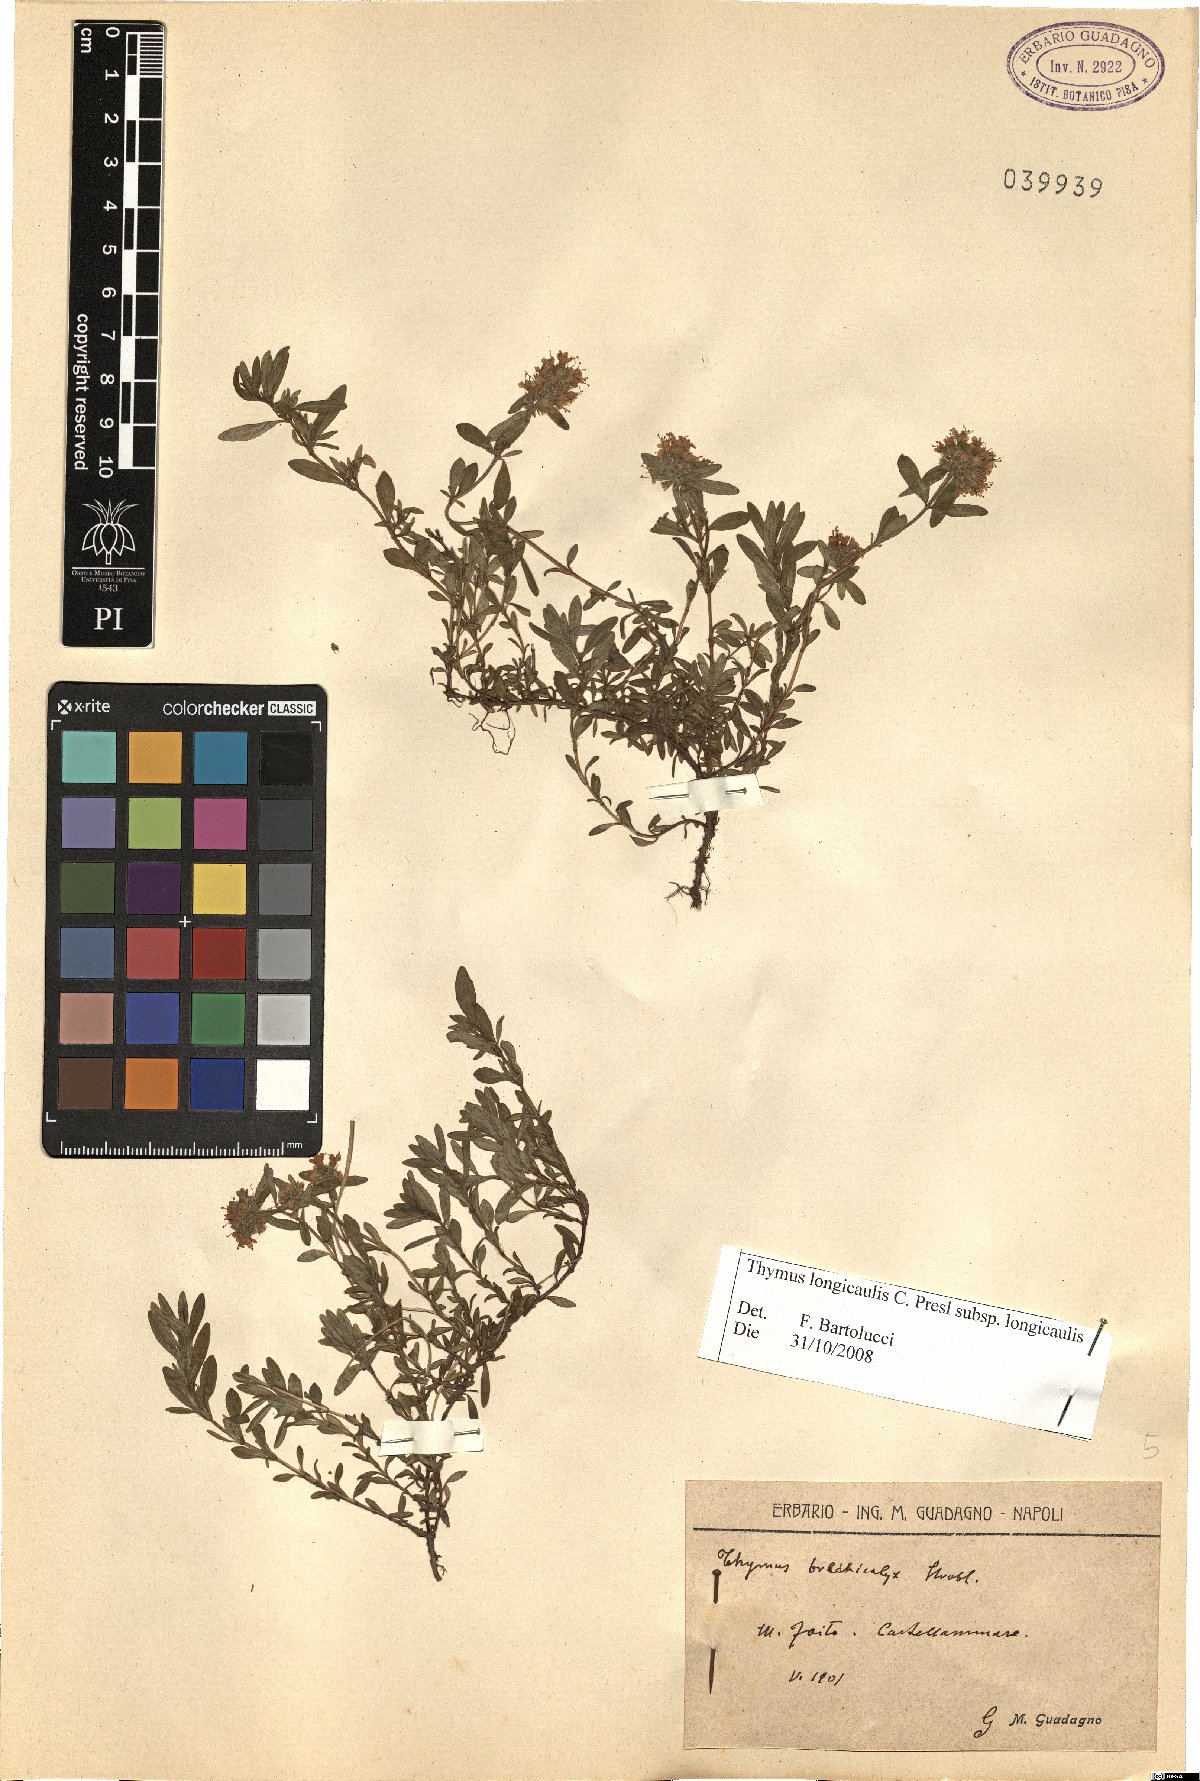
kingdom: Plantae
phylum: Tracheophyta
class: Magnoliopsida
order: Lamiales
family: Lamiaceae
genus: Thymus
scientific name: Thymus longicaulis
